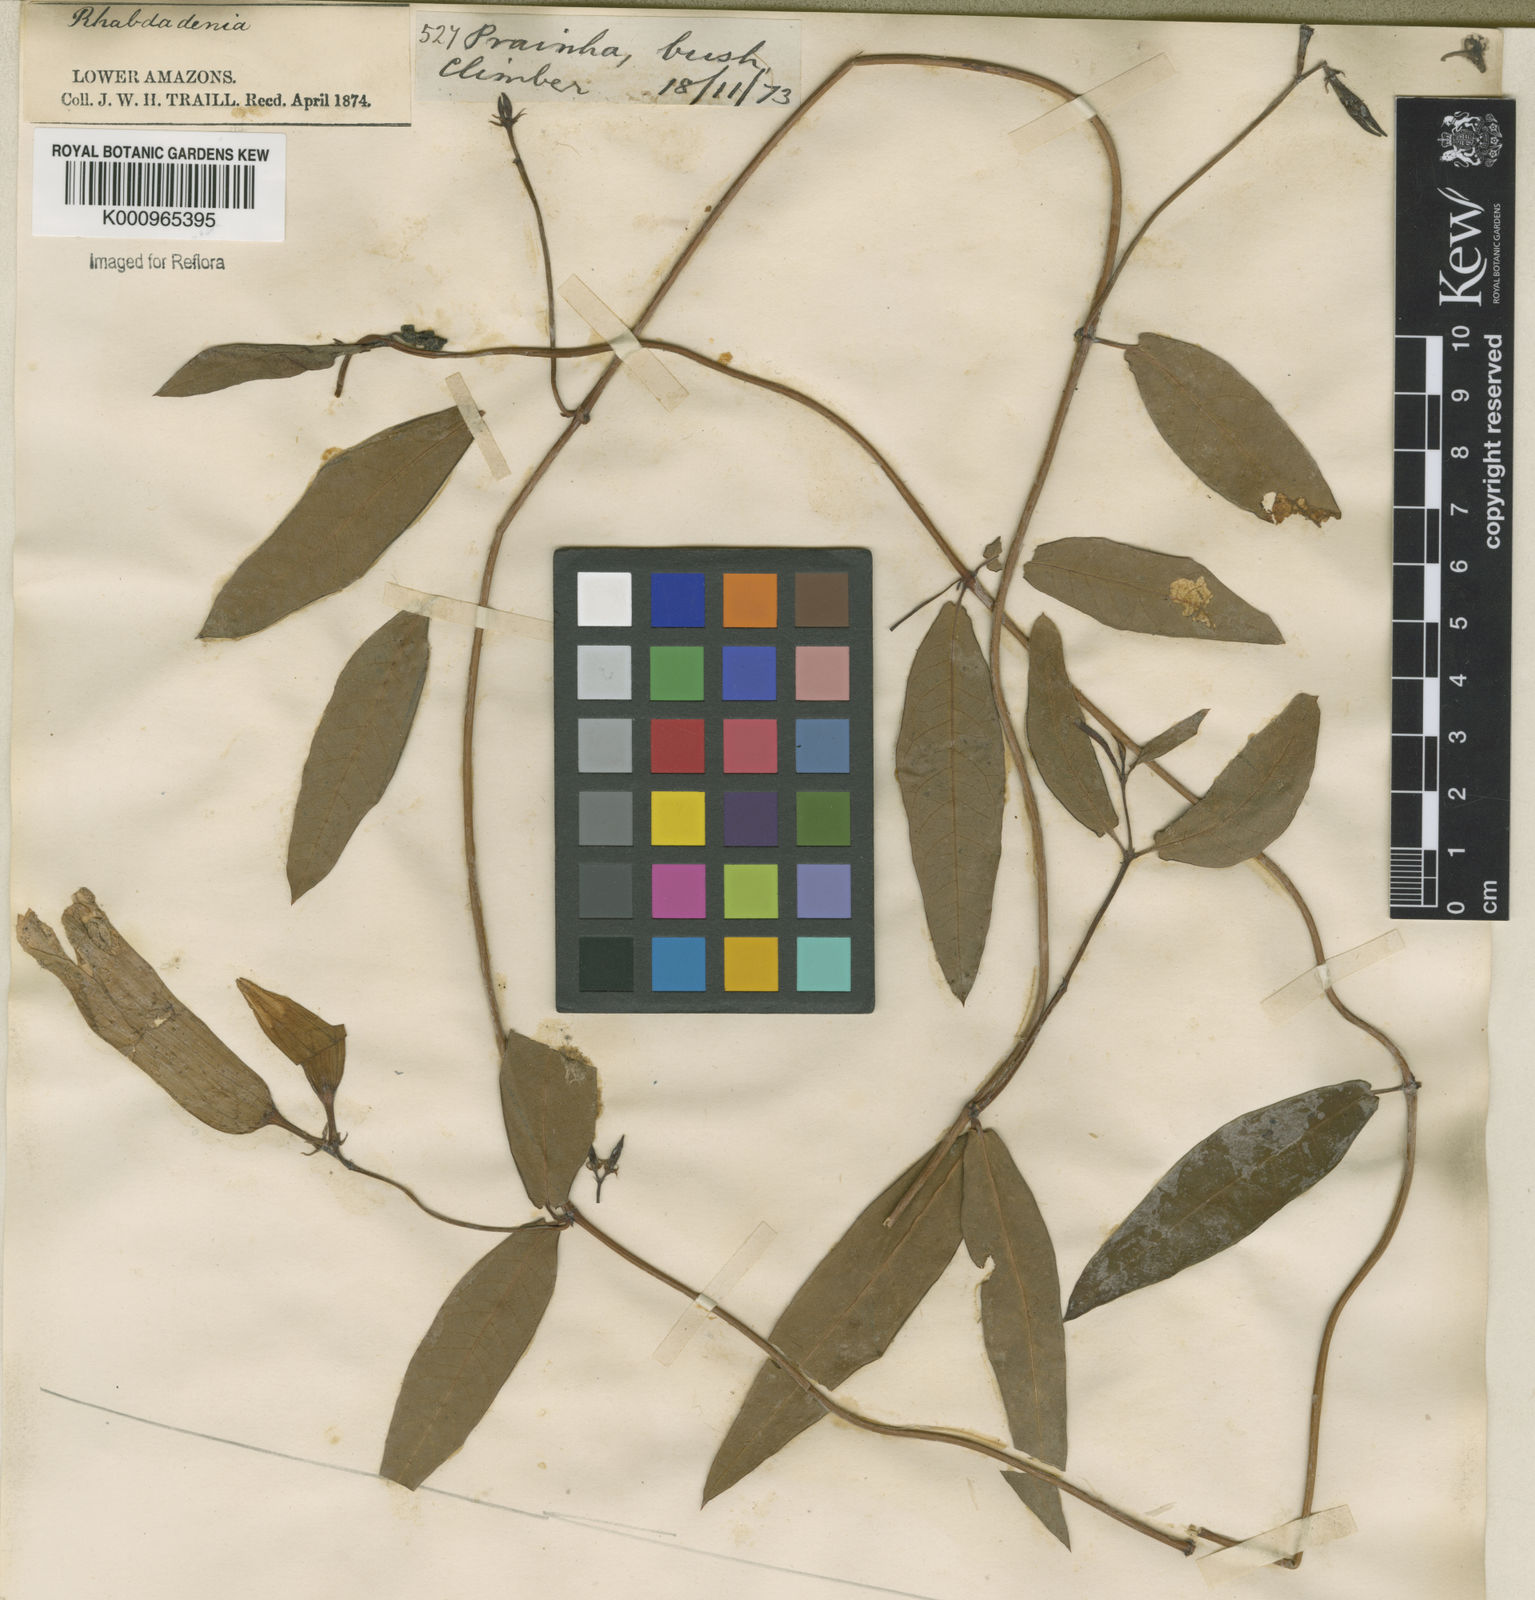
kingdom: Plantae
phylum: Tracheophyta
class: Magnoliopsida
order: Gentianales
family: Apocynaceae
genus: Rhabdadenia
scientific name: Rhabdadenia madida
